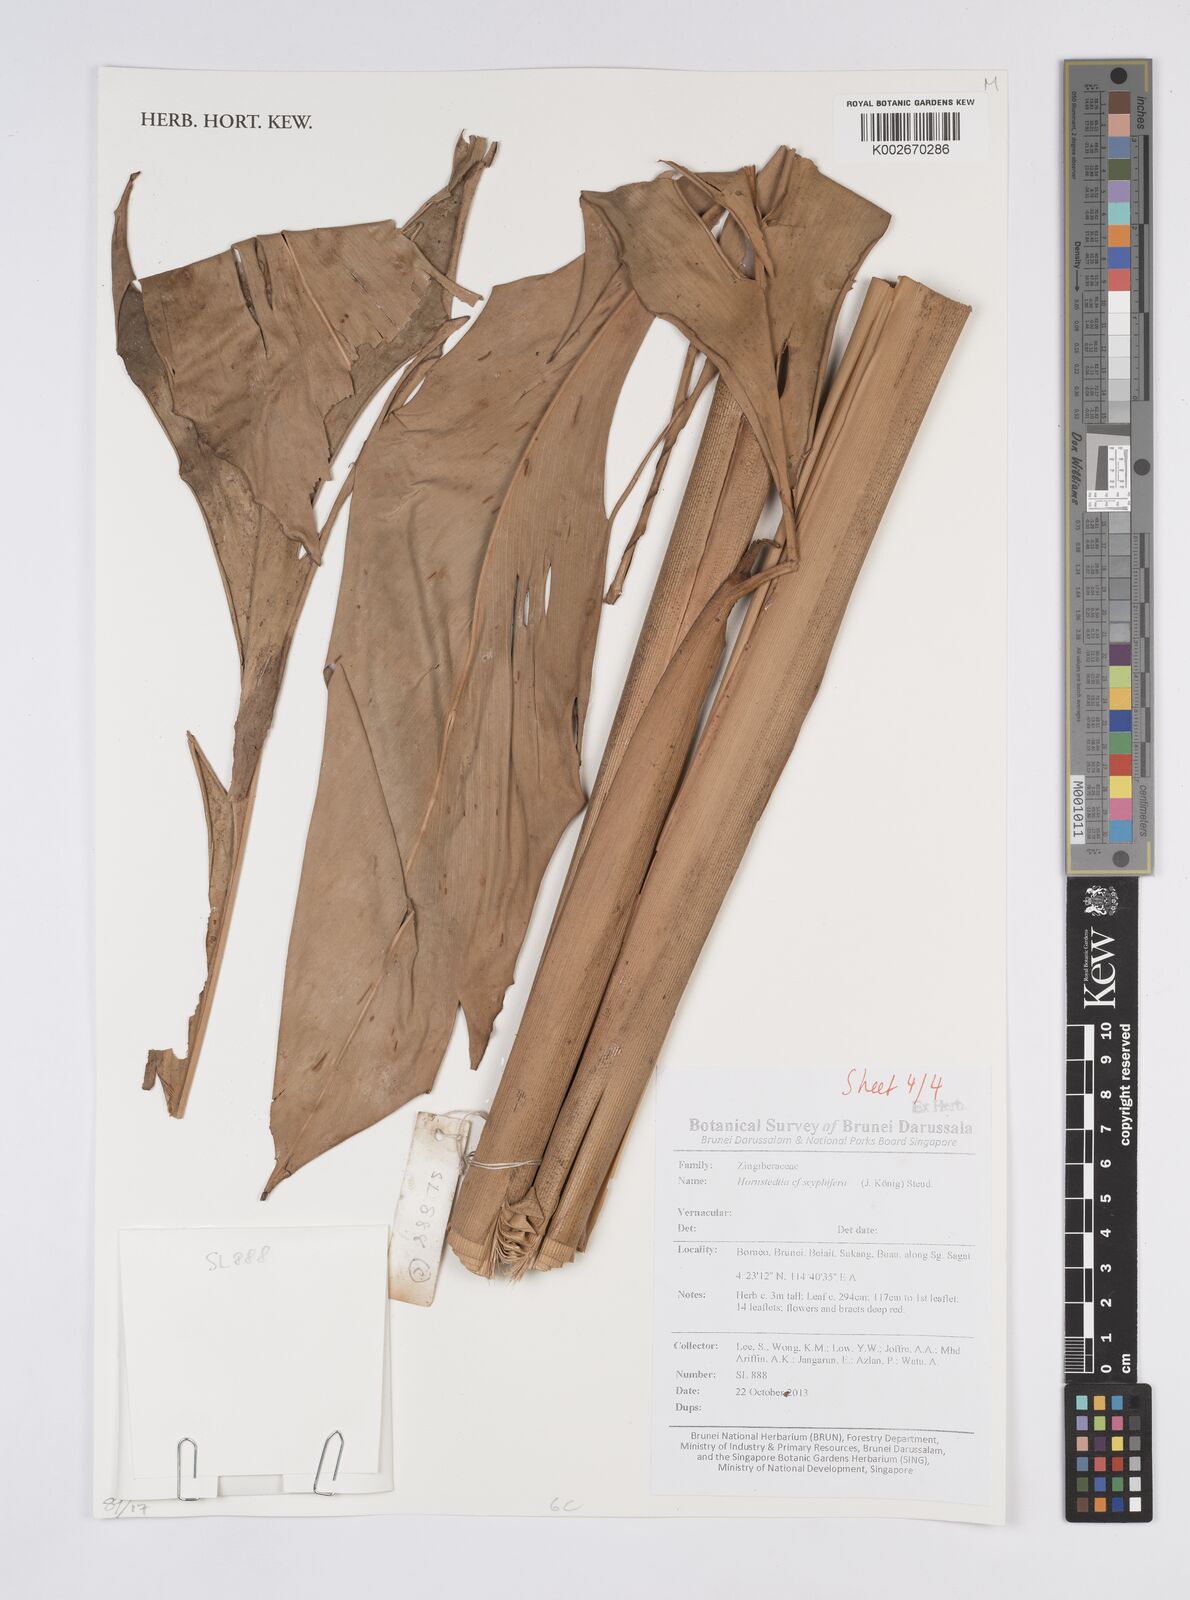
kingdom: Plantae
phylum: Tracheophyta
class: Liliopsida
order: Zingiberales
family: Zingiberaceae
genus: Hornstedtia
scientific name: Hornstedtia scyphifera
